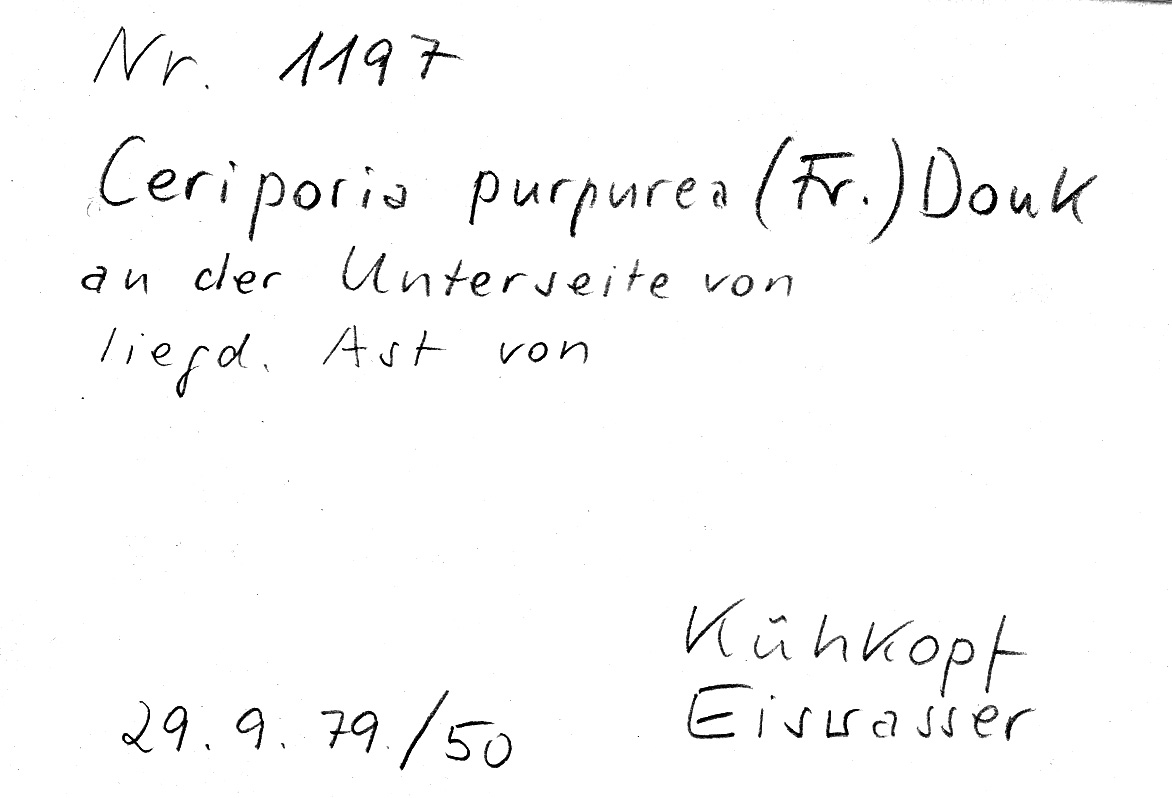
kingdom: Fungi
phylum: Basidiomycota
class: Agaricomycetes
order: Polyporales
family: Irpicaceae
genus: Ceriporia
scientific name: Ceriporia purpurea
